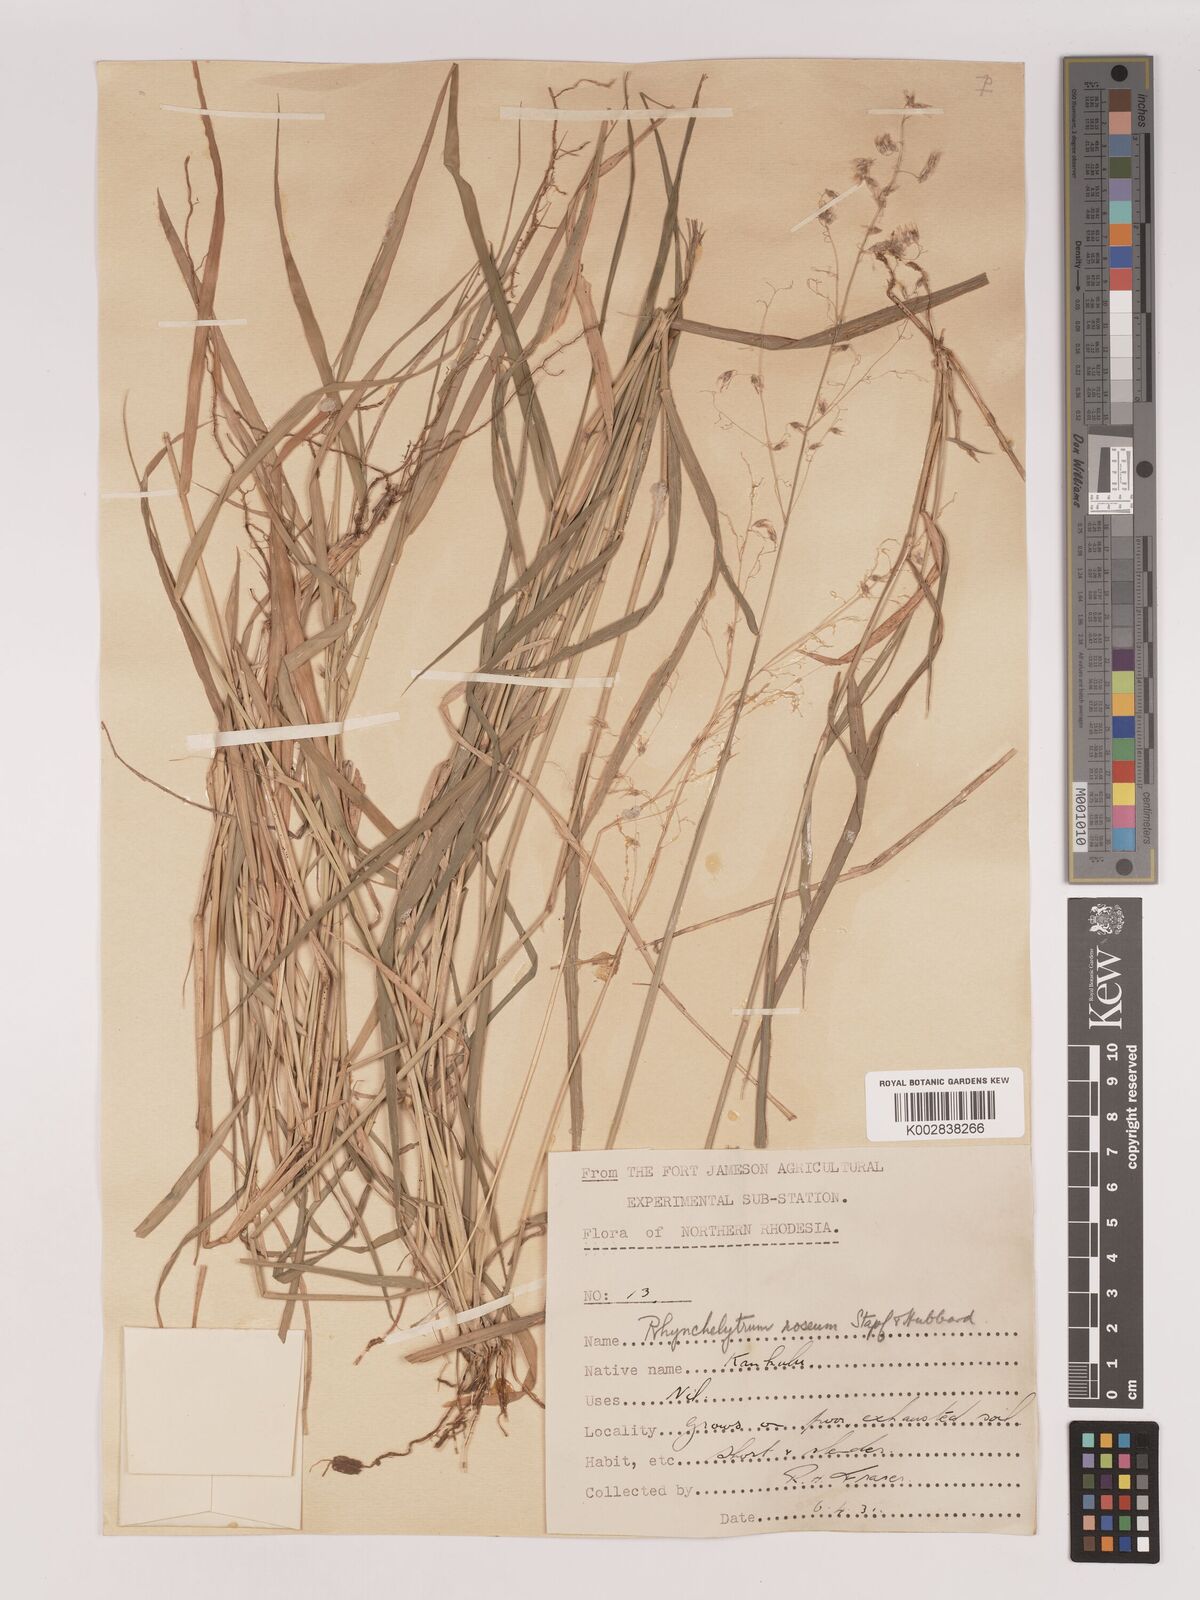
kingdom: Plantae
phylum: Tracheophyta
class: Liliopsida
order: Poales
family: Poaceae
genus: Melinis
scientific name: Melinis repens
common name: Rose natal grass
